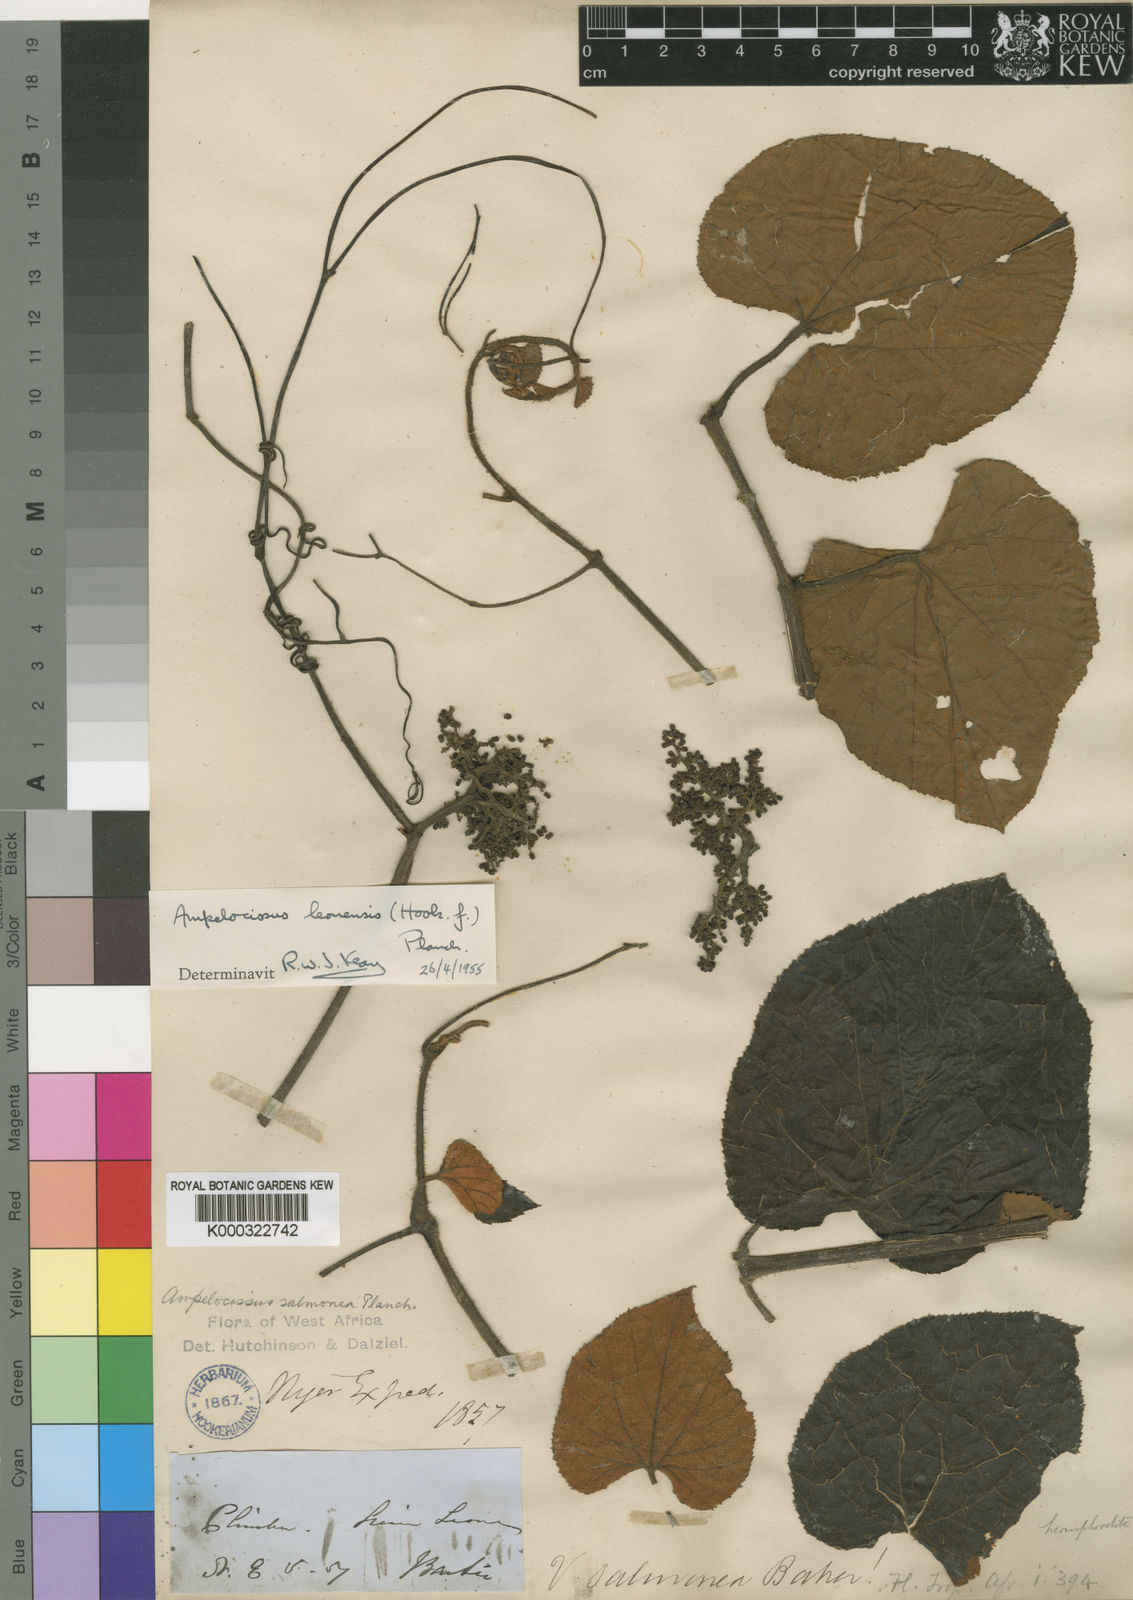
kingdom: Plantae
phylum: Tracheophyta
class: Magnoliopsida
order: Vitales
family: Vitaceae
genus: Ampelocissus
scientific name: Ampelocissus leonensis
